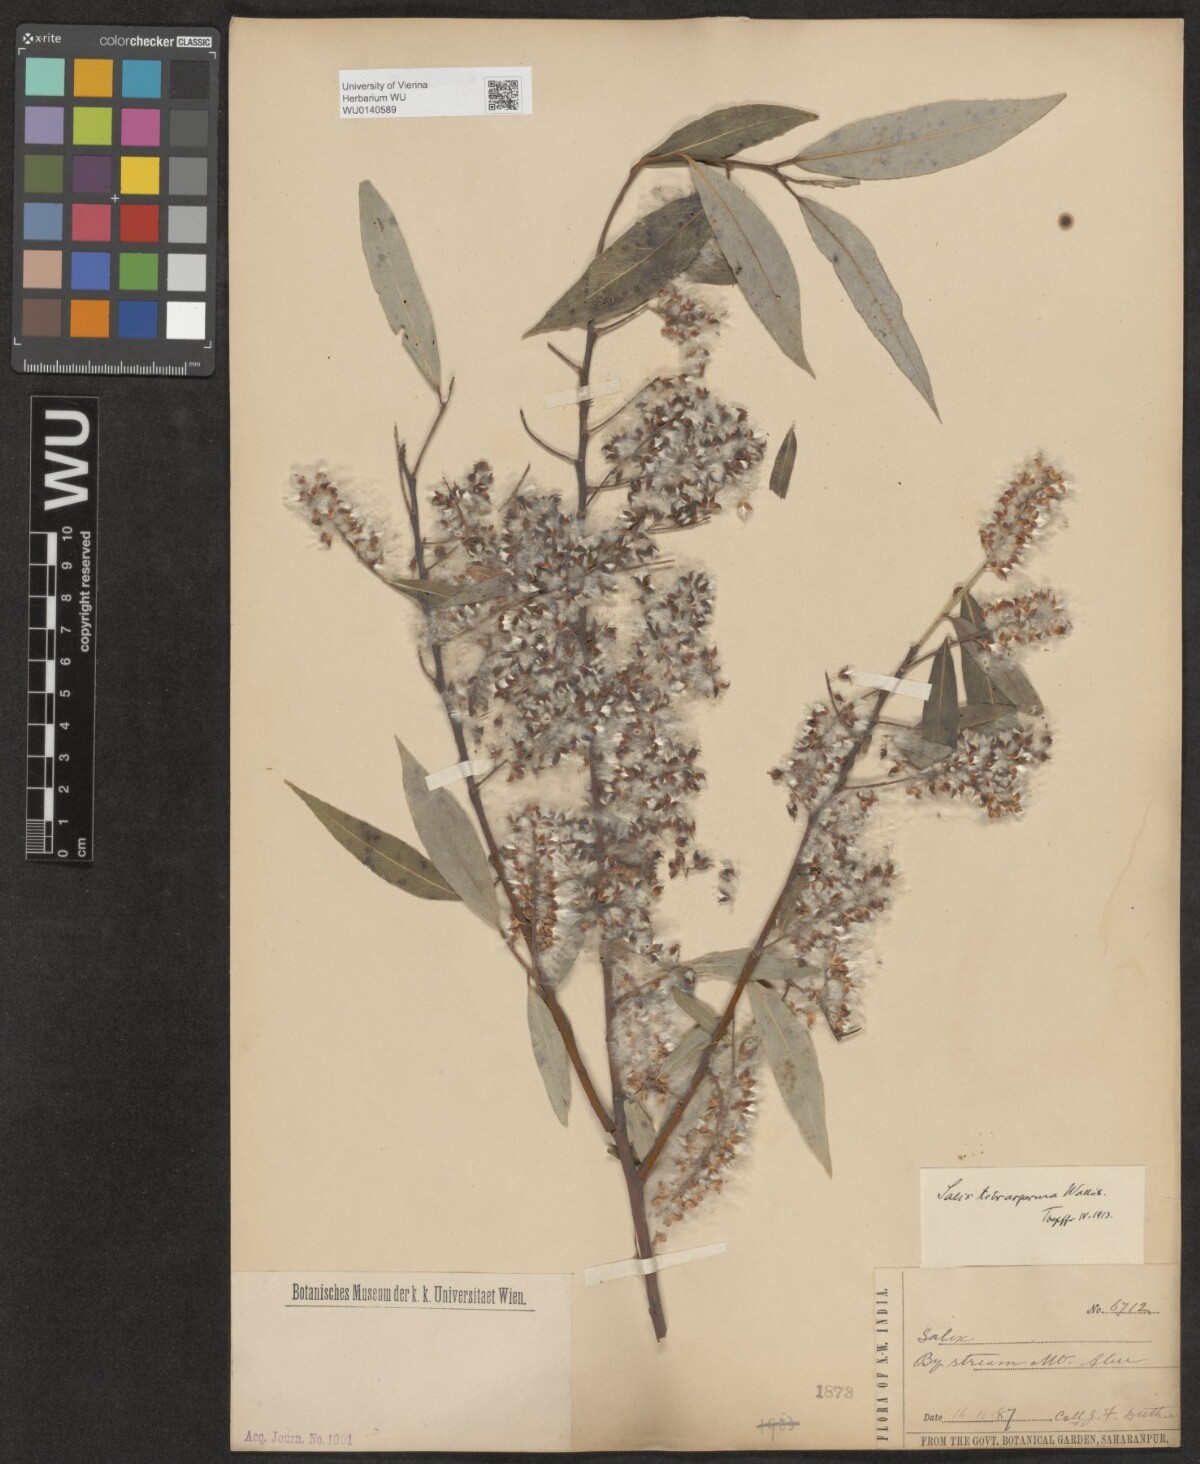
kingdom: Plantae
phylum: Tracheophyta
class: Magnoliopsida
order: Malpighiales
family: Salicaceae
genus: Salix
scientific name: Salix tetrasperma
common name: Indian willow
